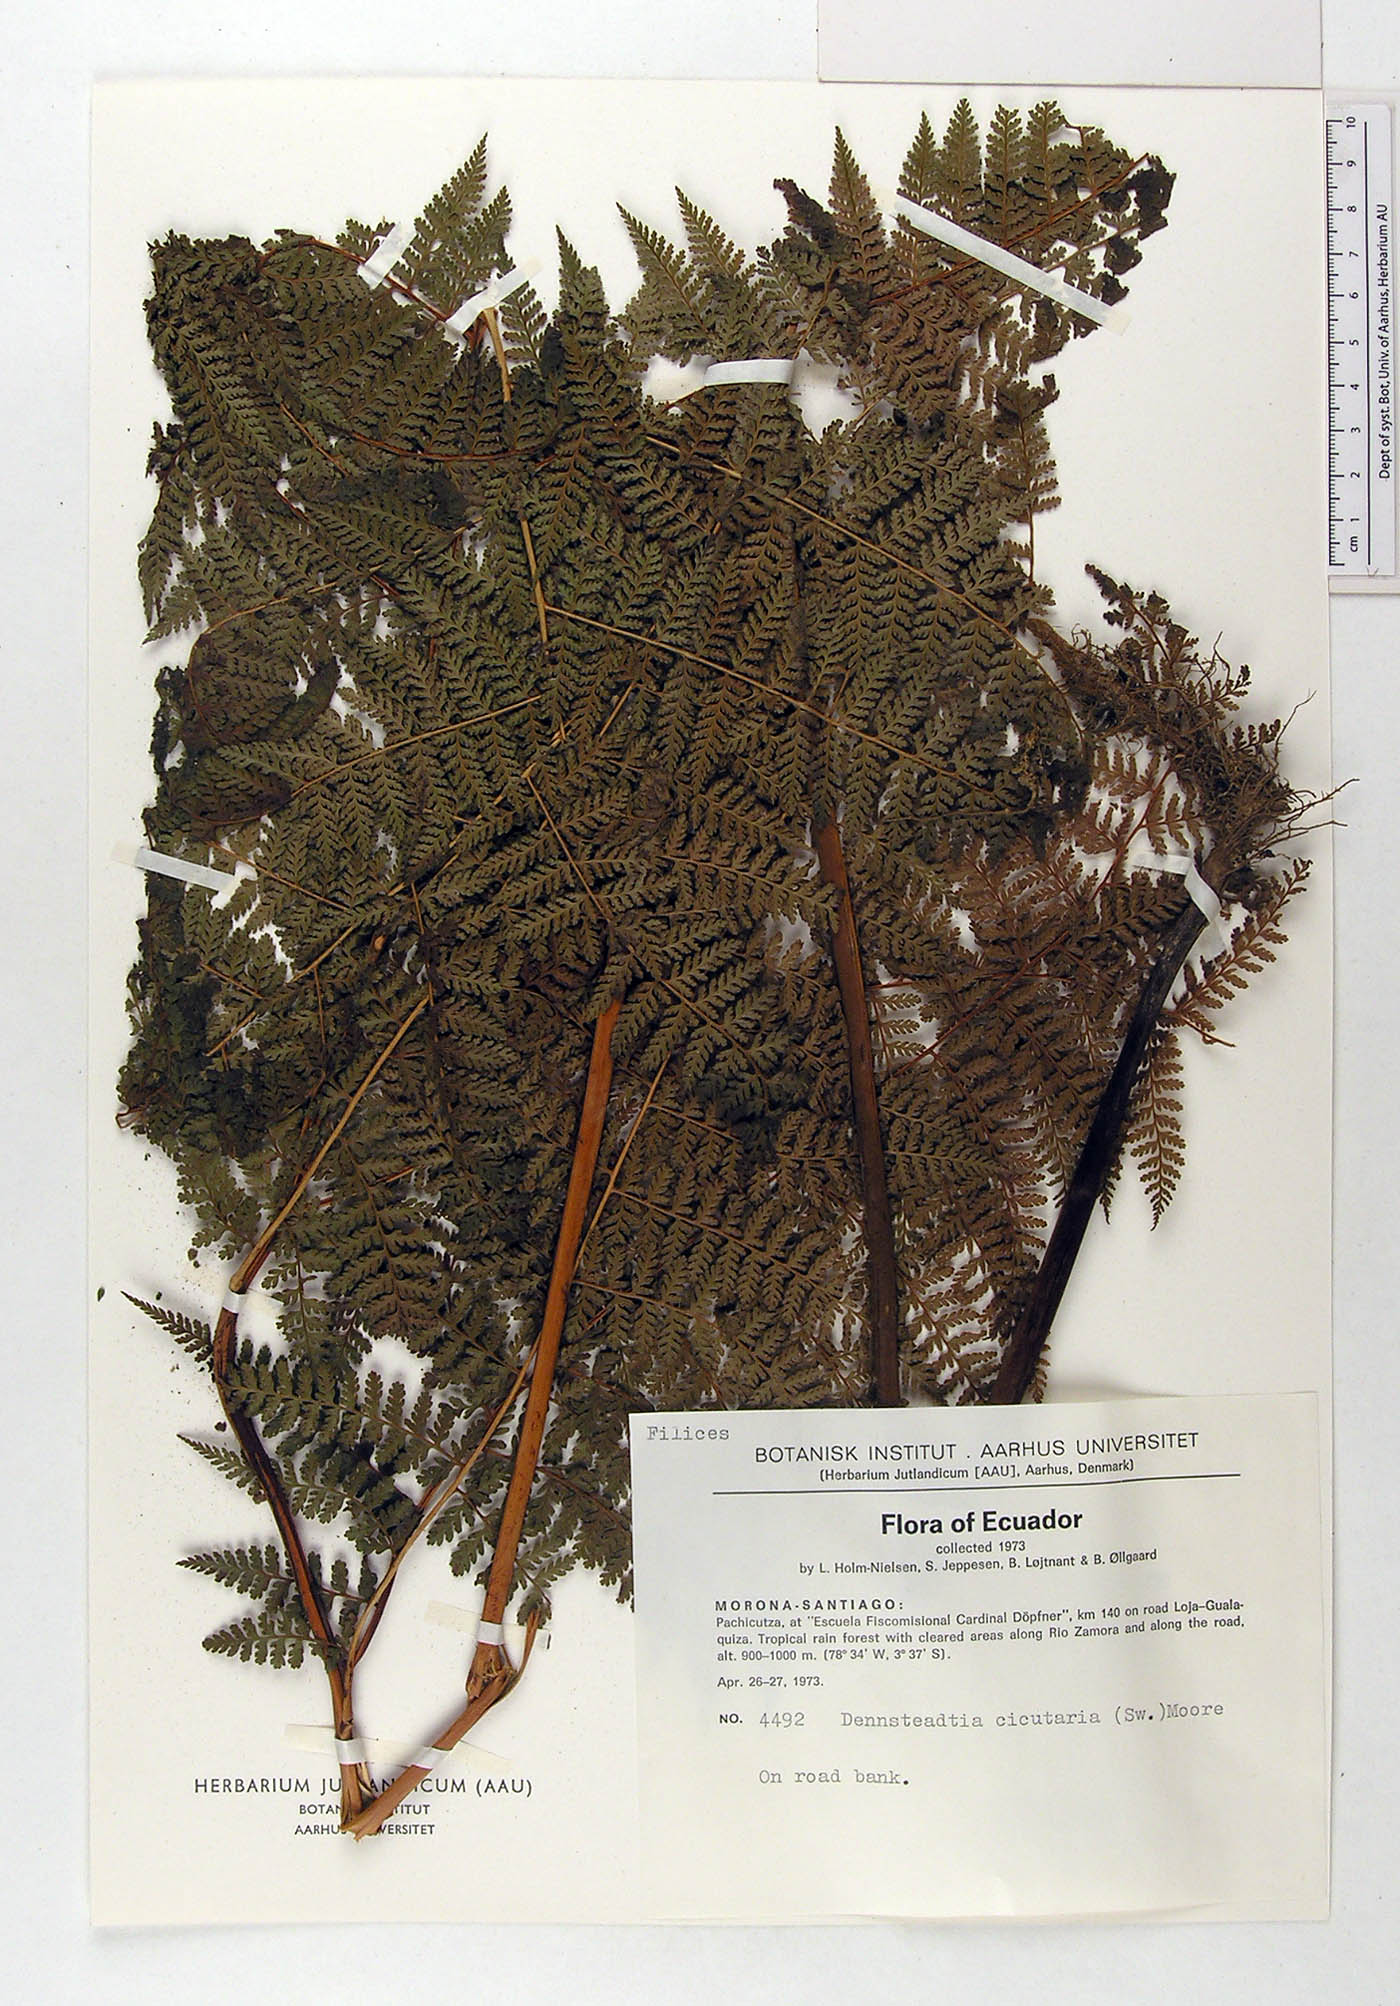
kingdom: Plantae
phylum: Tracheophyta
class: Polypodiopsida
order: Polypodiales
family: Dennstaedtiaceae
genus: Dennstaedtia
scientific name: Dennstaedtia cicutaria
